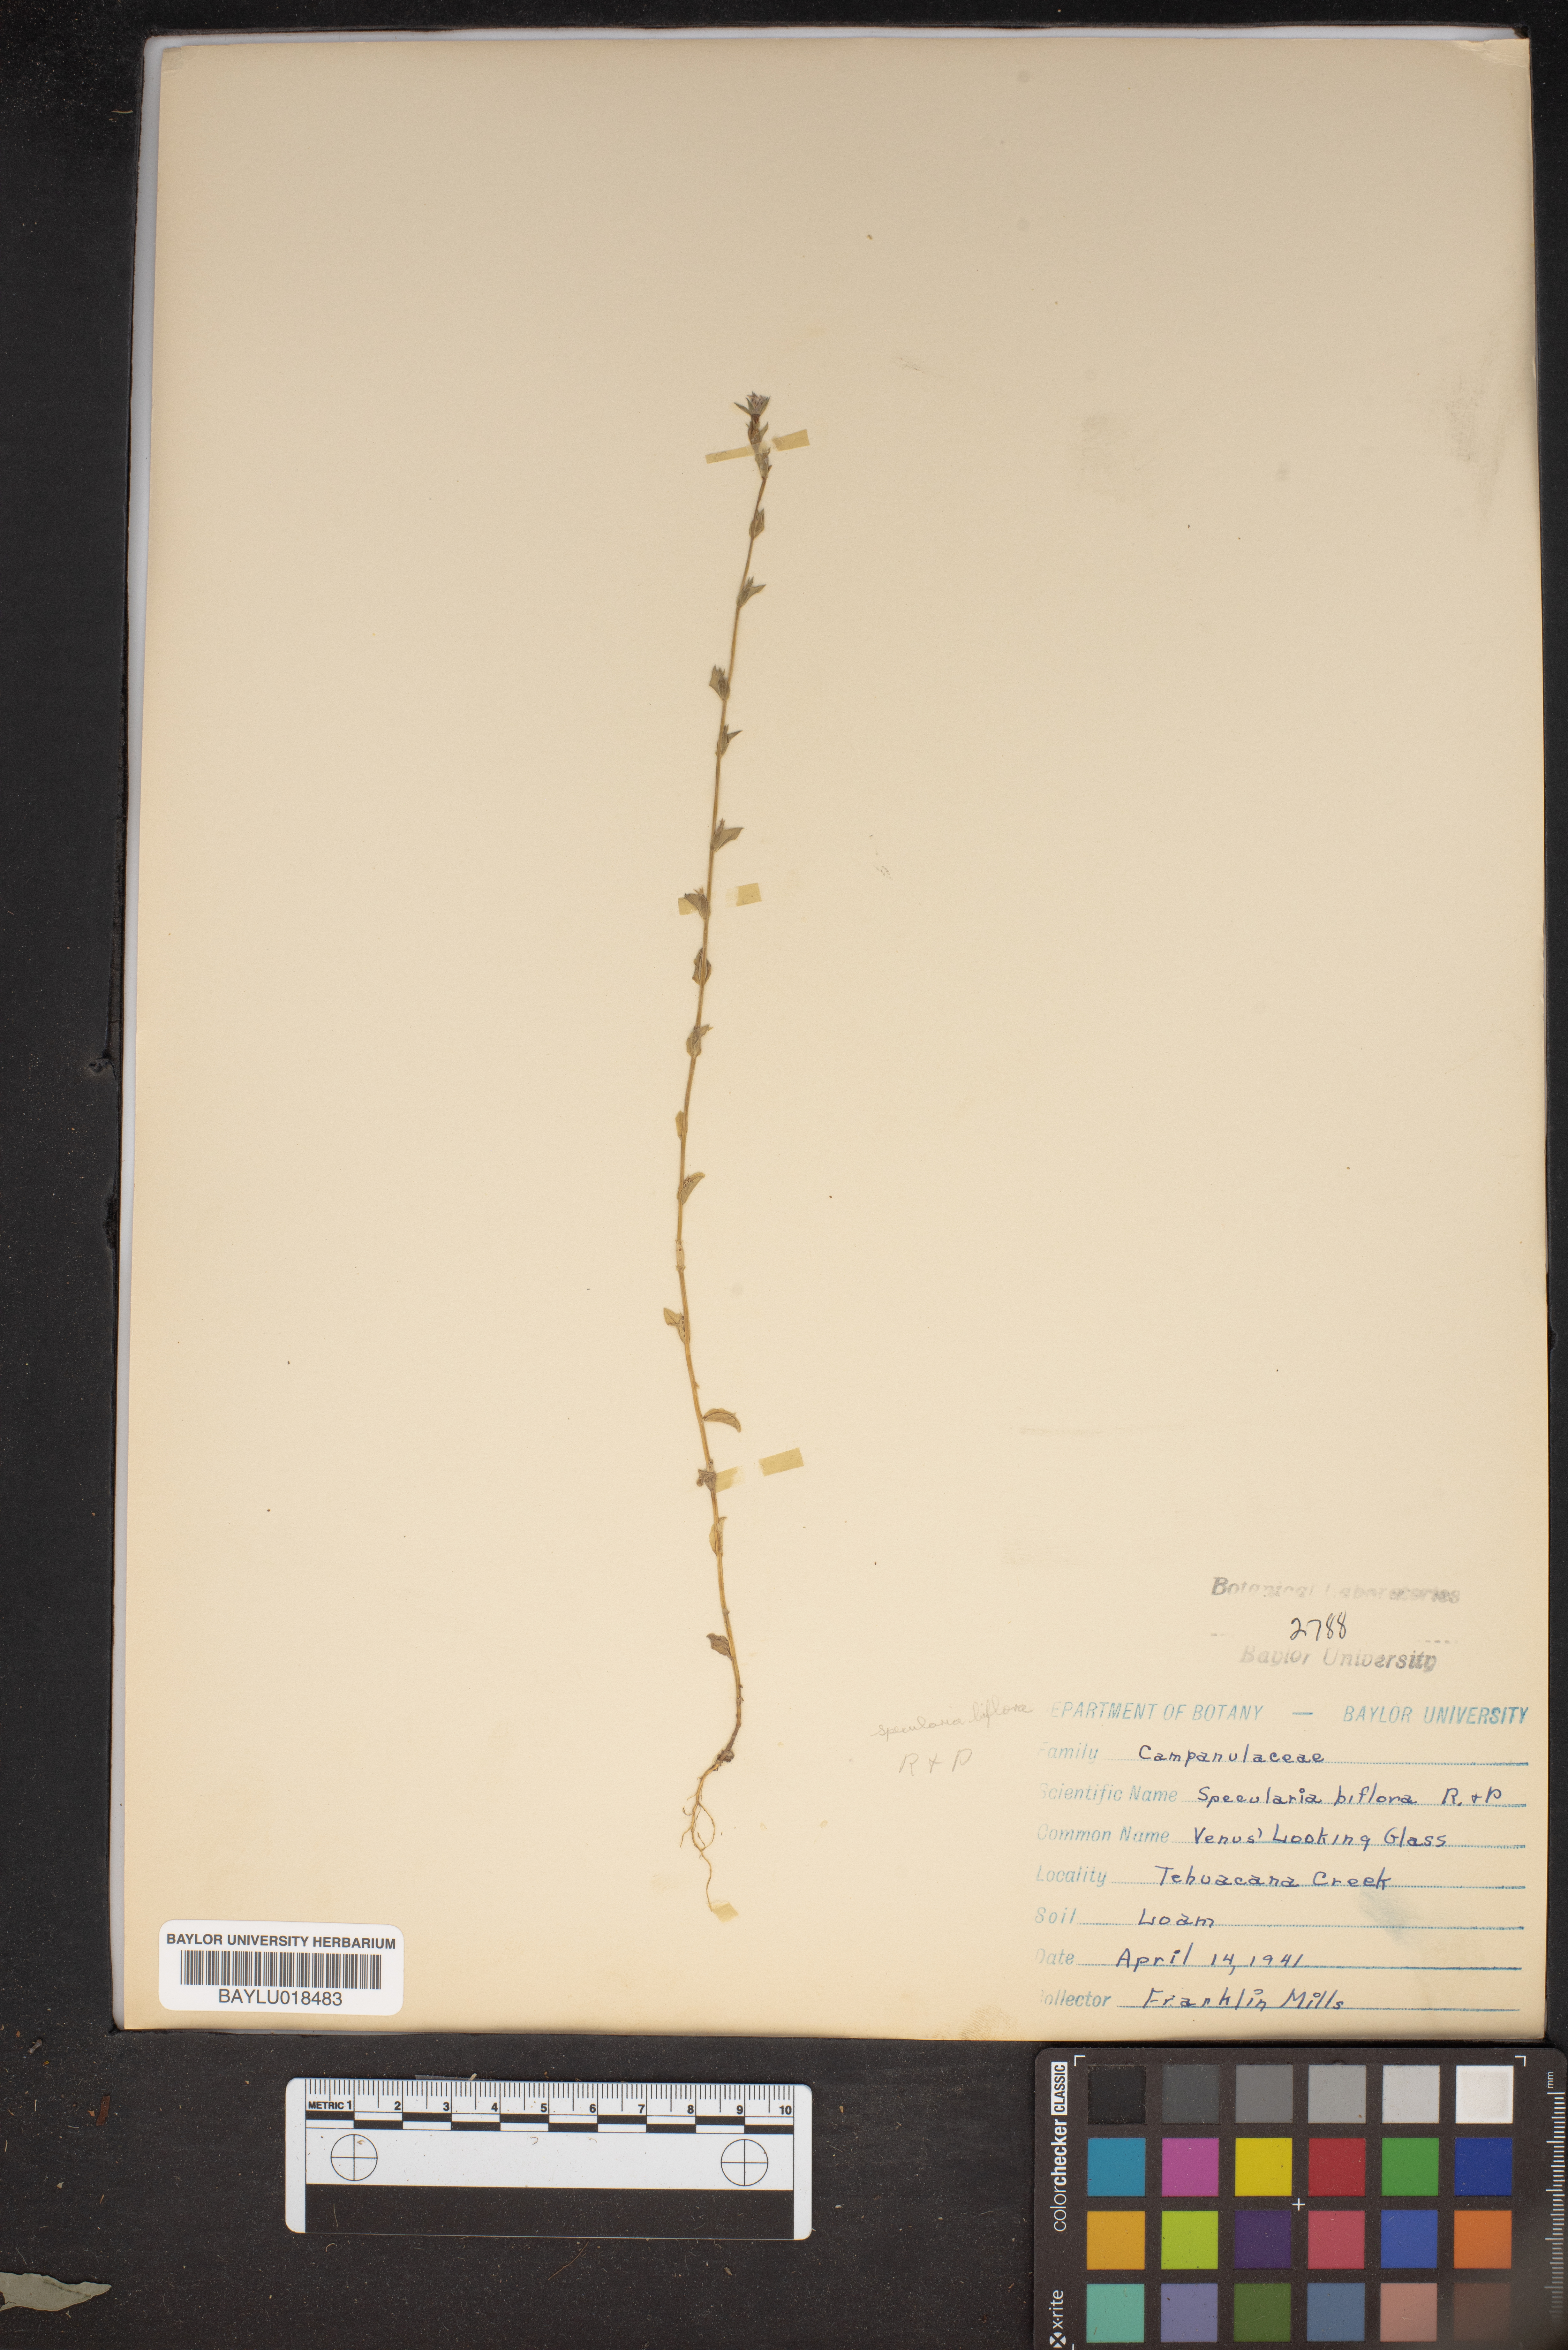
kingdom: Plantae
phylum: Tracheophyta
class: Magnoliopsida
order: Asterales
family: Campanulaceae
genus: Triodanis
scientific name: Triodanis perfoliata
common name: Clasping venus' looking-glass
